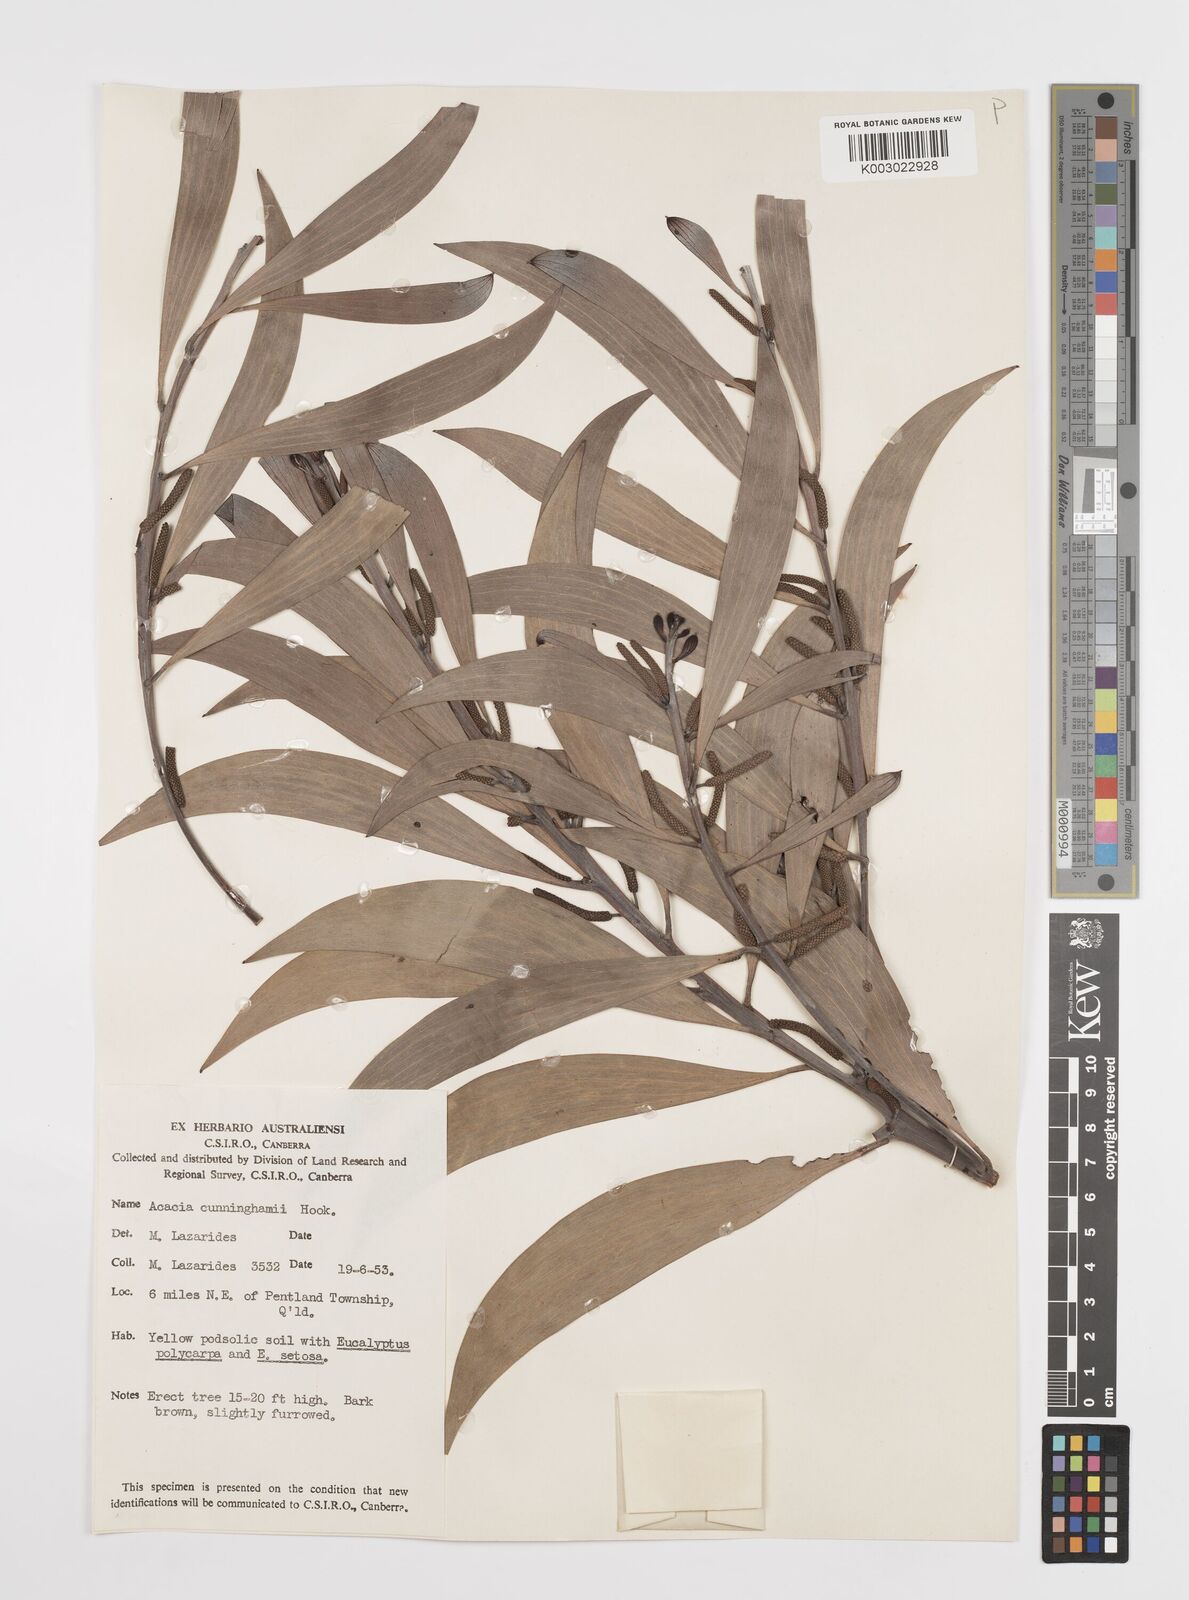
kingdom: Plantae
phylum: Tracheophyta
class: Magnoliopsida
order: Fabales
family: Fabaceae
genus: Acacia
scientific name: Acacia longispicata
